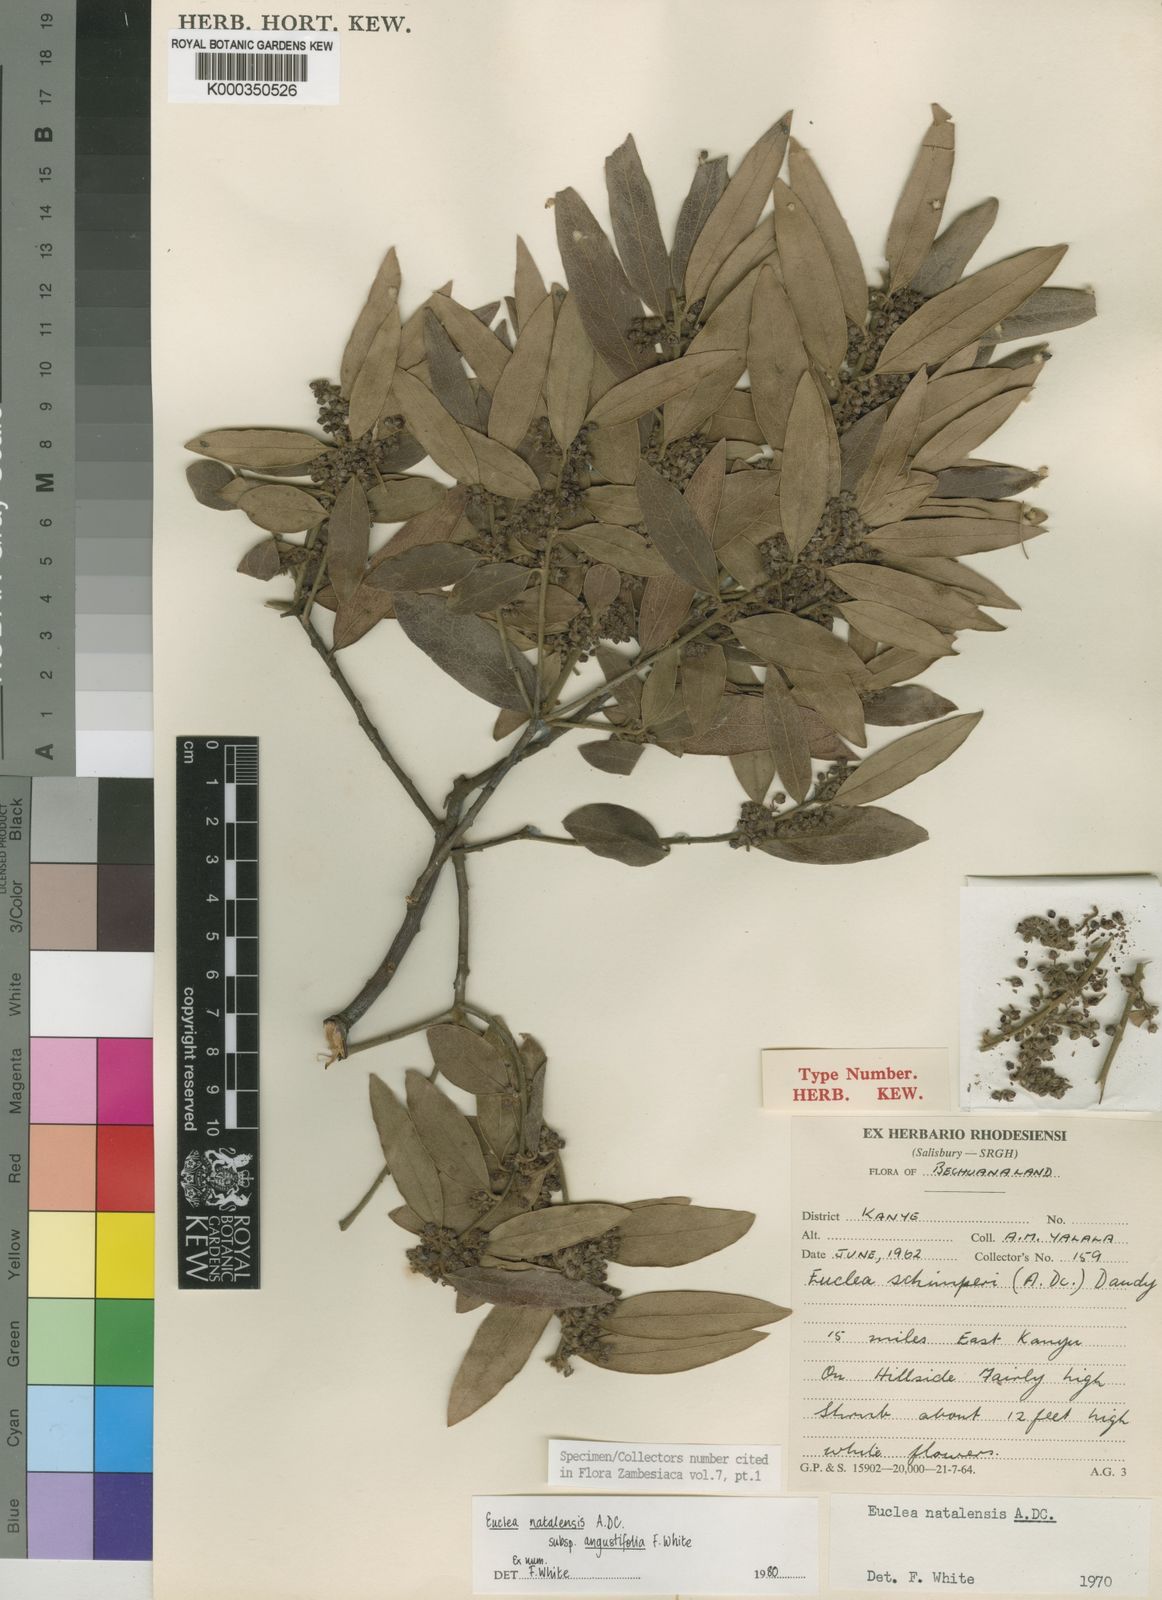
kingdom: Plantae
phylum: Tracheophyta
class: Magnoliopsida
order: Ericales
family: Ebenaceae
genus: Euclea
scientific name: Euclea natalensis
